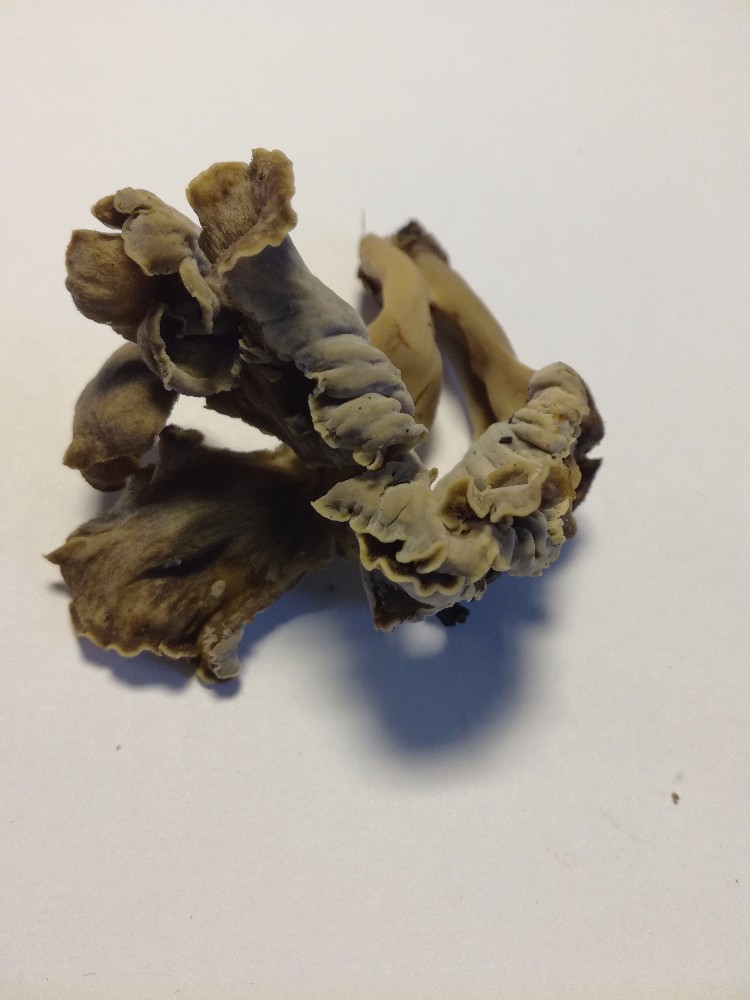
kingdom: Fungi
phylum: Basidiomycota
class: Agaricomycetes
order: Cantharellales
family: Hydnaceae
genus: Craterellus
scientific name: Craterellus undulatus
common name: liden kantarel
